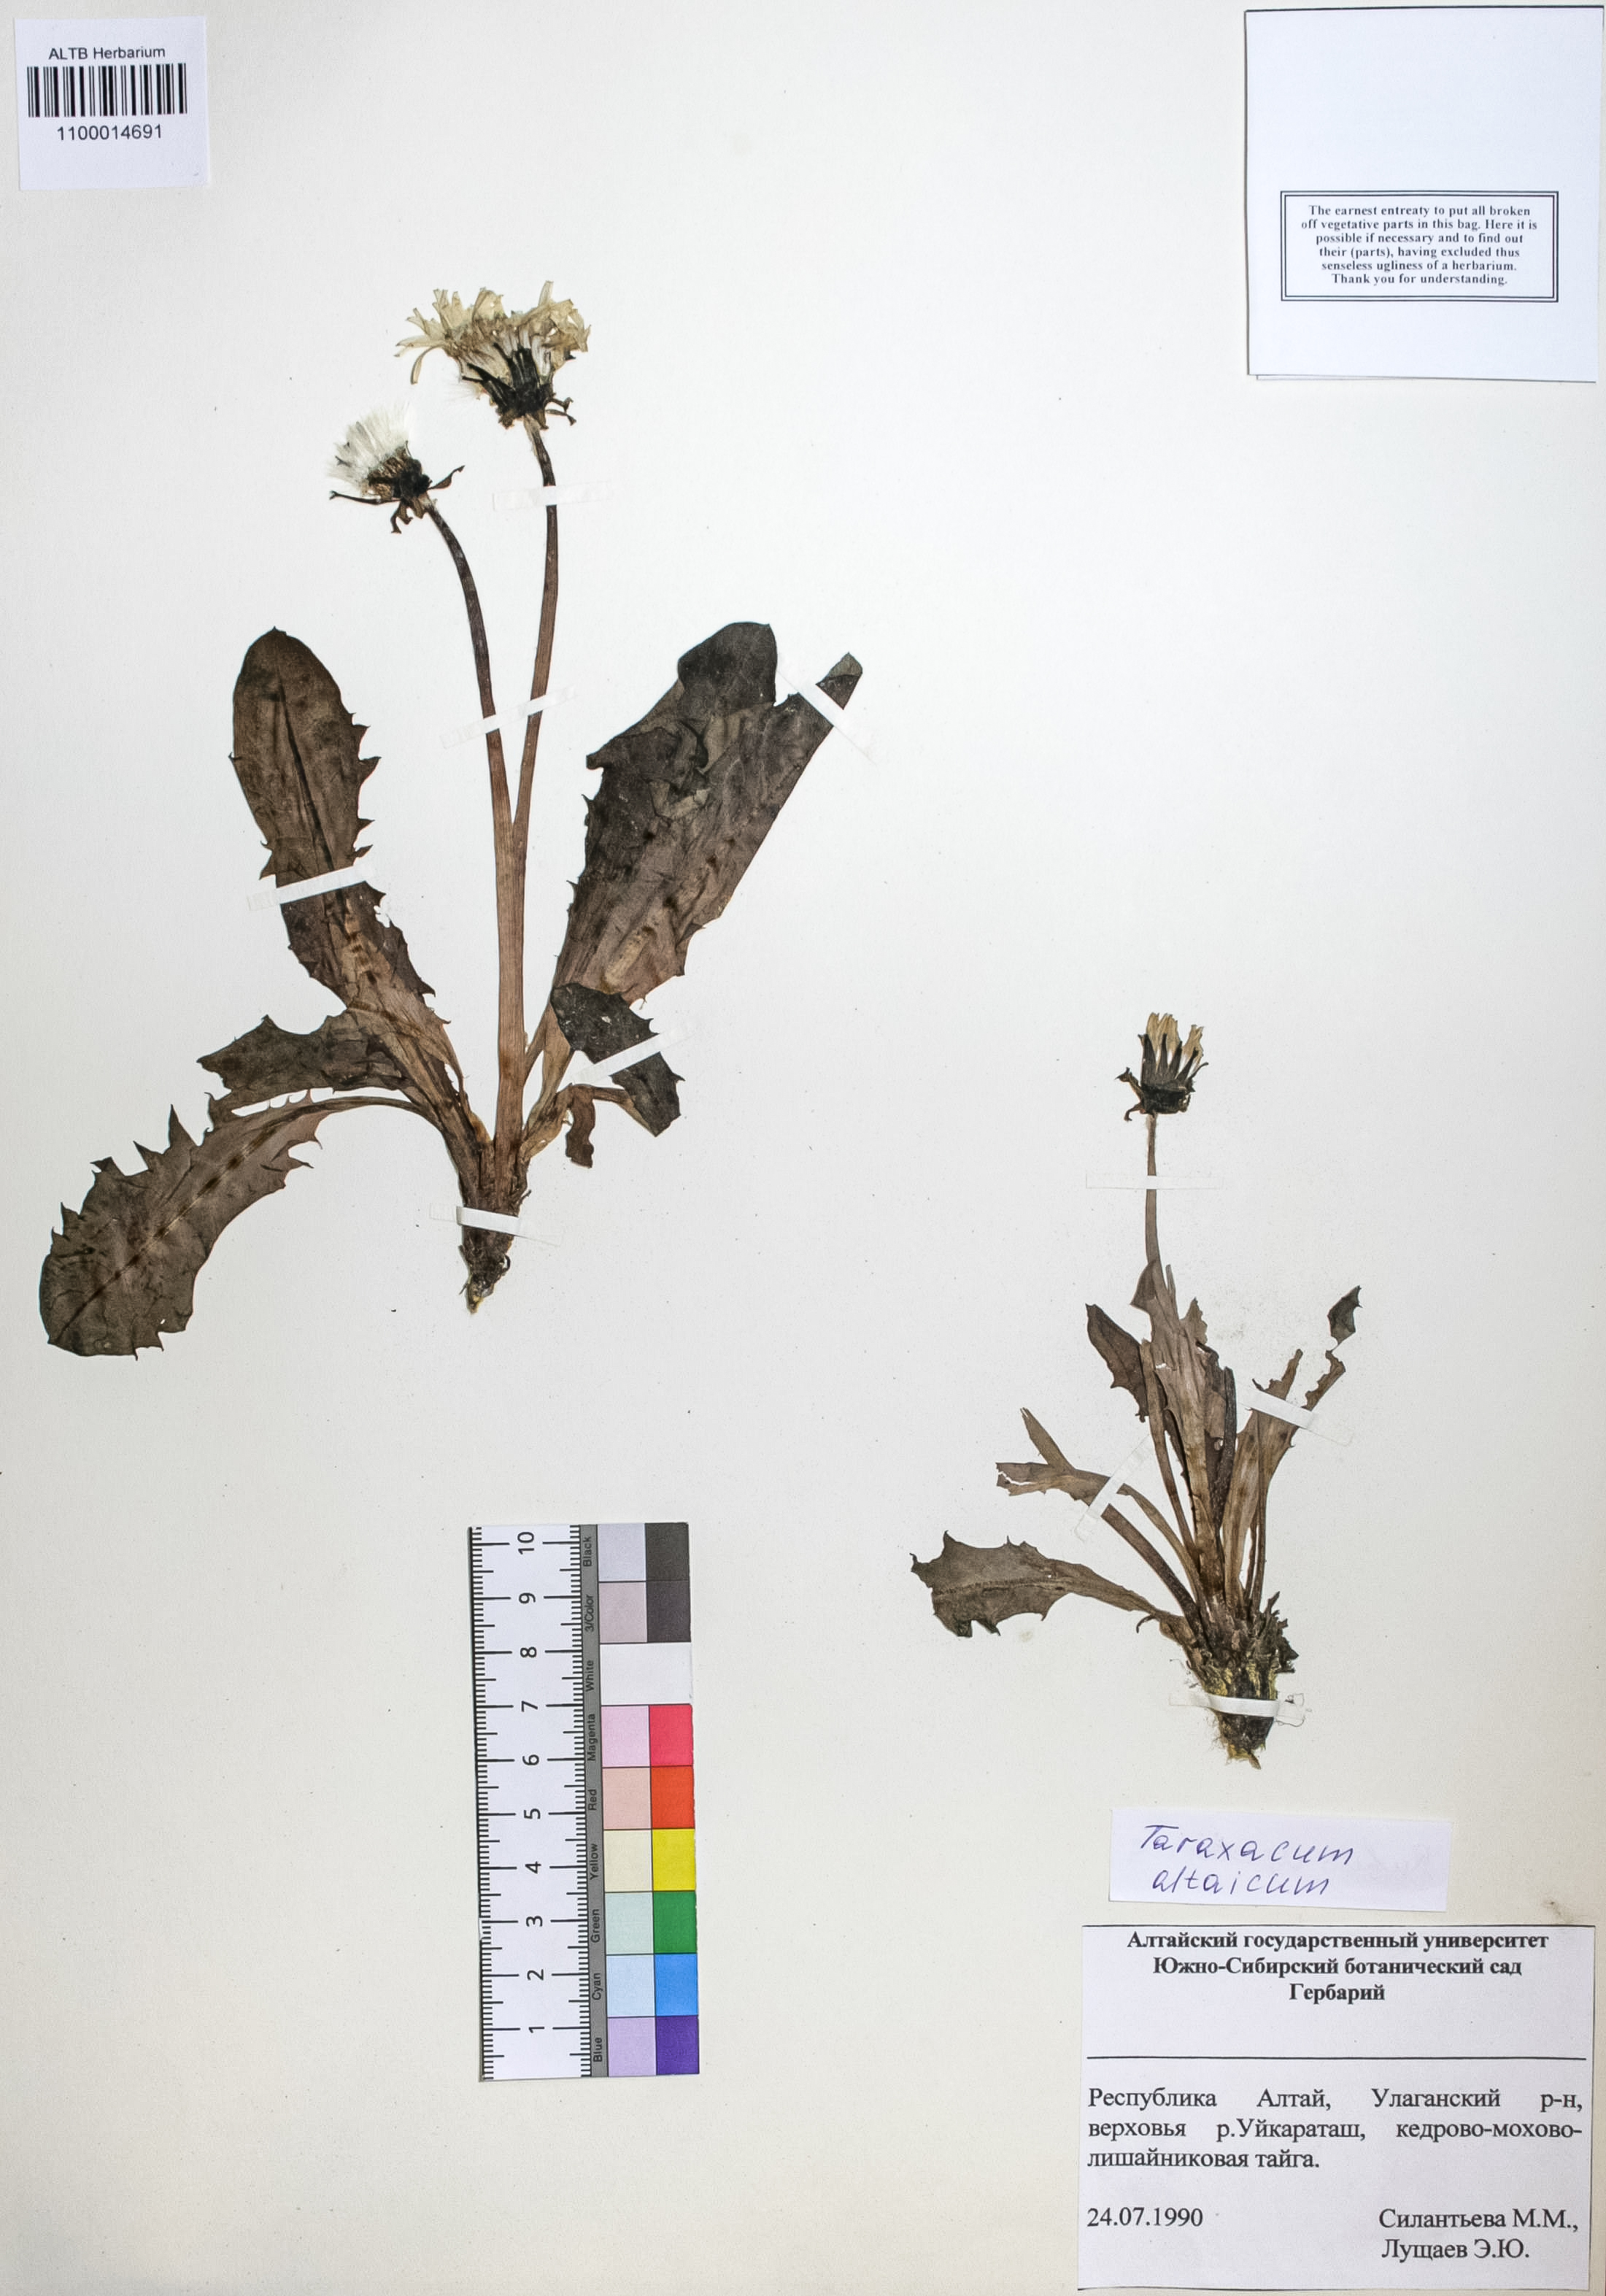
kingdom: Plantae
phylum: Tracheophyta
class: Magnoliopsida
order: Asterales
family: Asteraceae
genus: Taraxacum
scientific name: Taraxacum ceratophorum
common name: Horn-bearing dandelion
